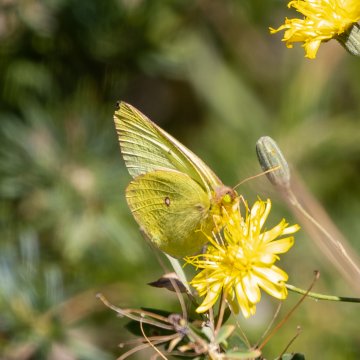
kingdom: Animalia
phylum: Arthropoda
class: Insecta
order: Lepidoptera
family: Pieridae
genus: Colias
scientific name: Colias occidentalis
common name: Western Sulphur
